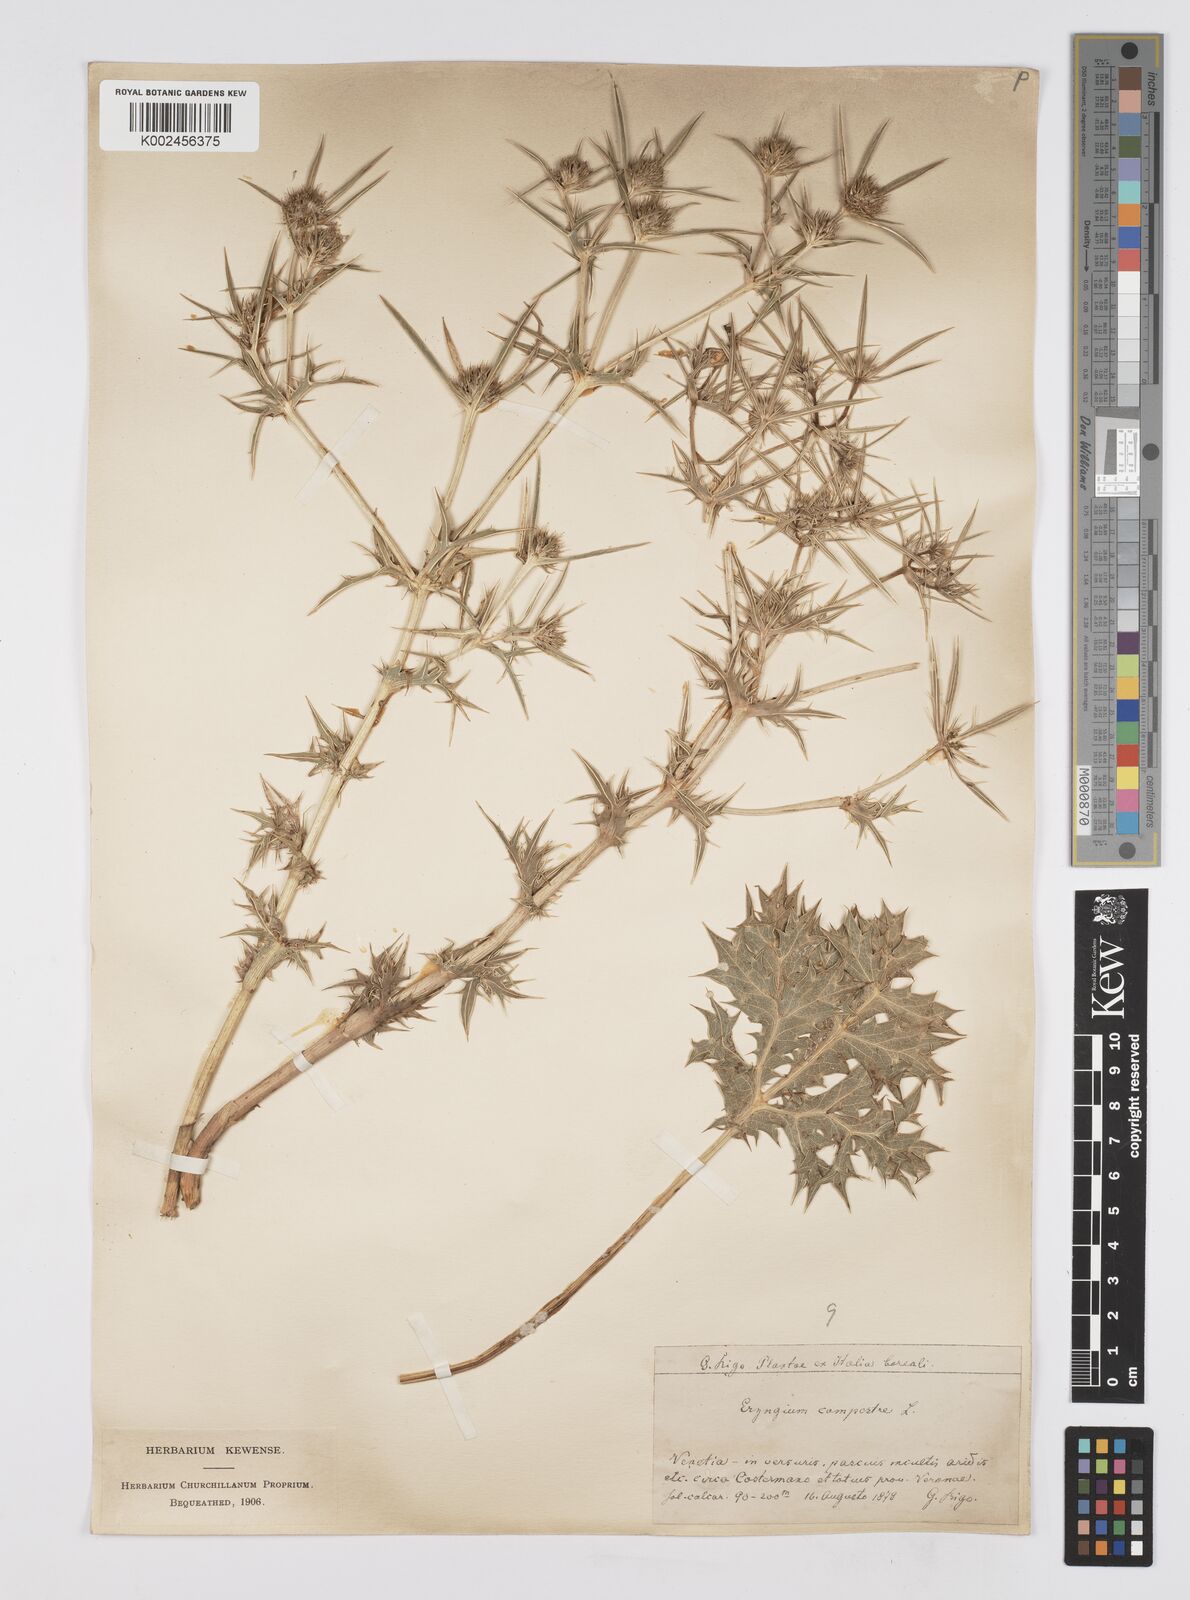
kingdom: Plantae
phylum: Tracheophyta
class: Magnoliopsida
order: Apiales
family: Apiaceae
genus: Eryngium
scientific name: Eryngium campestre
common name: Field eryngo
